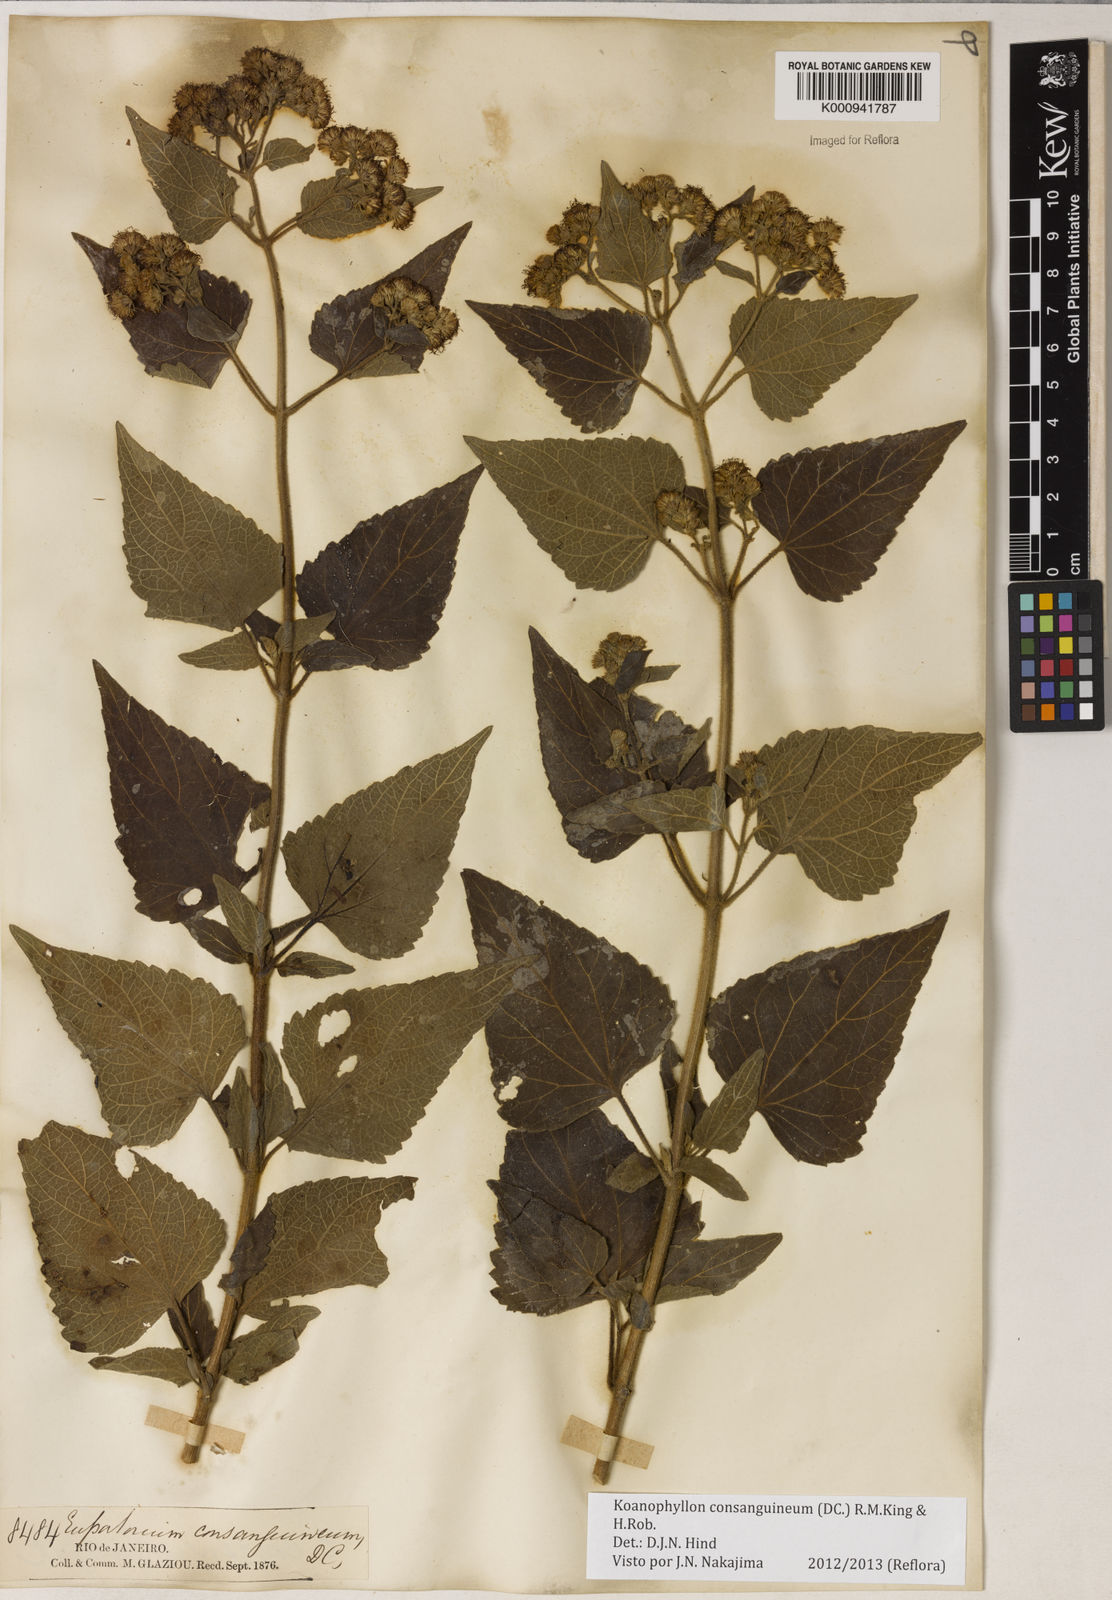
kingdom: Plantae
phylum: Tracheophyta
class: Magnoliopsida
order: Asterales
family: Asteraceae
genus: Koanophyllon
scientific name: Koanophyllon consanguineum
